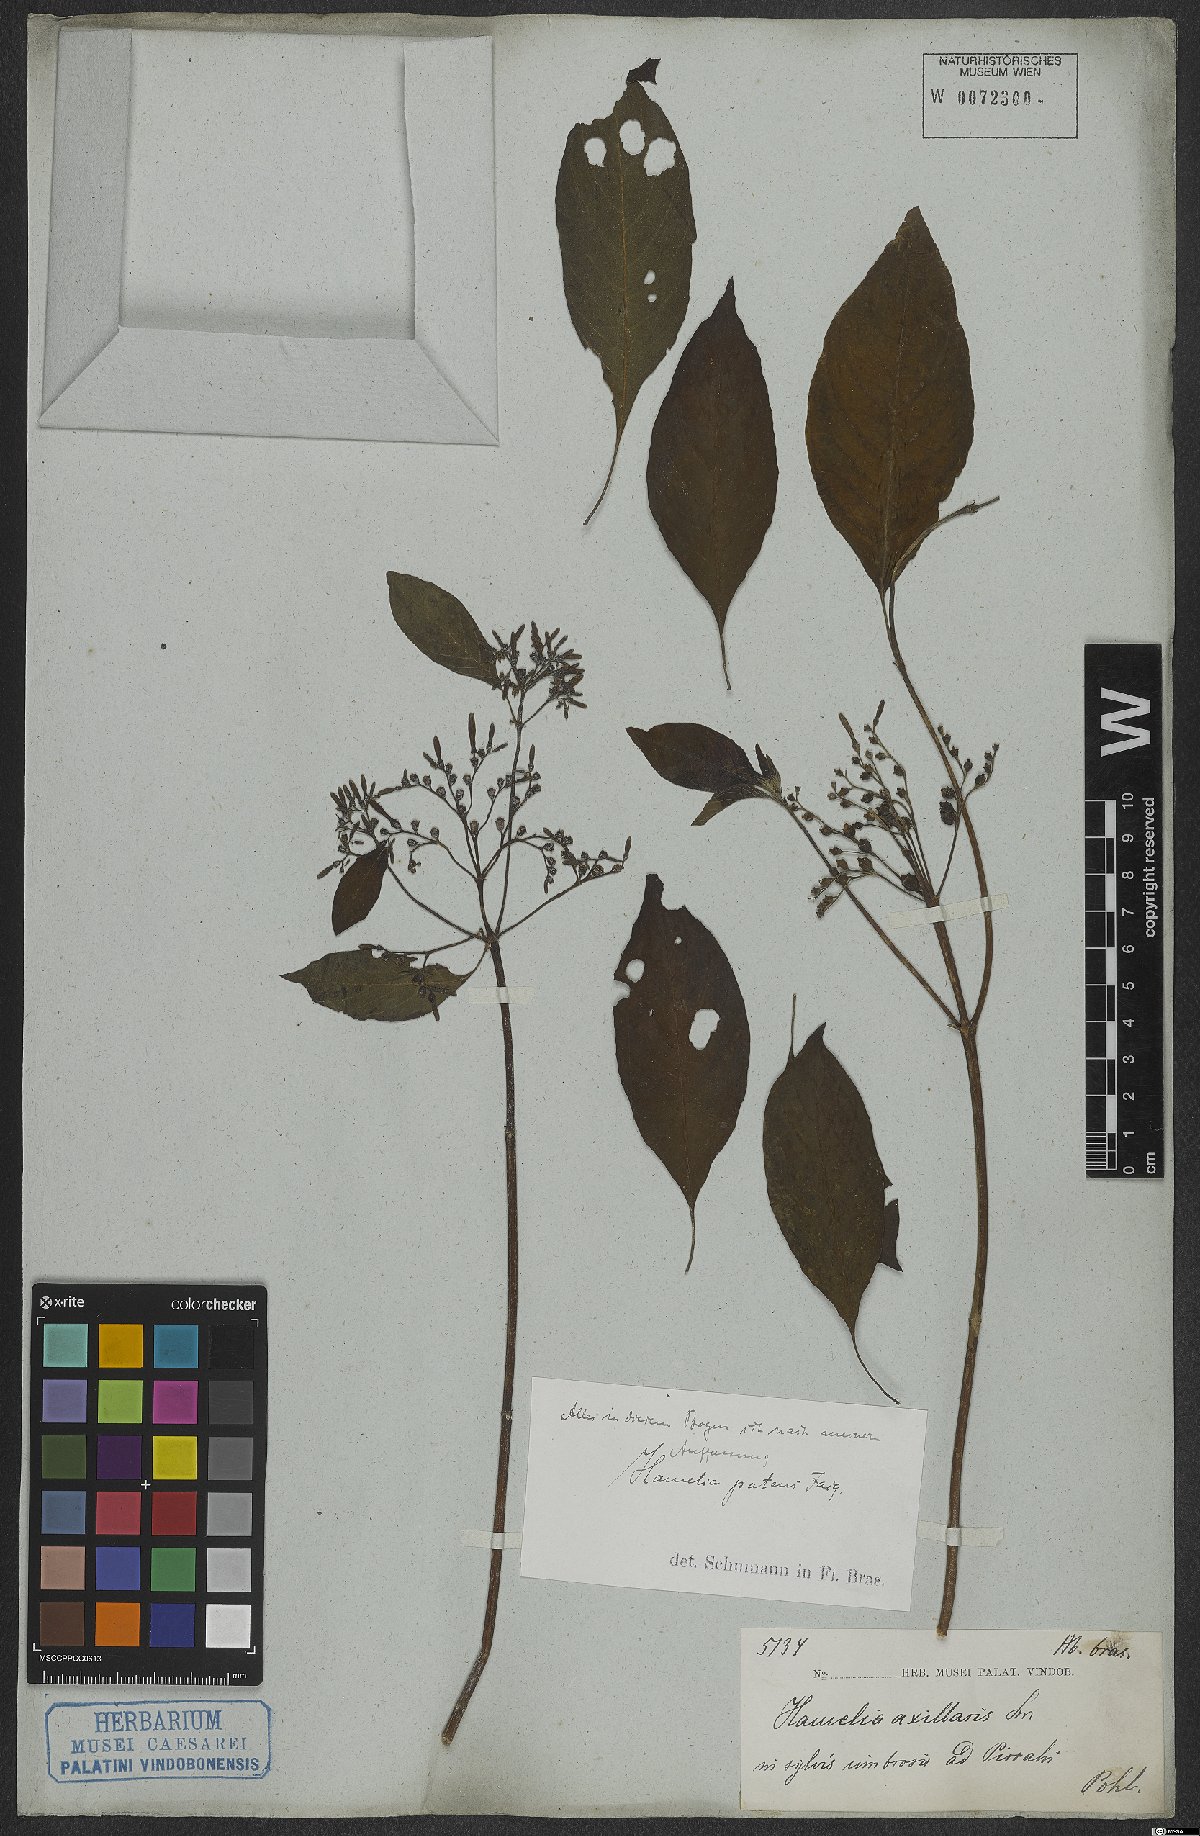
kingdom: Plantae
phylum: Tracheophyta
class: Magnoliopsida
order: Gentianales
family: Rubiaceae
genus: Hamelia
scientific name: Hamelia patens
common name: Redhead
